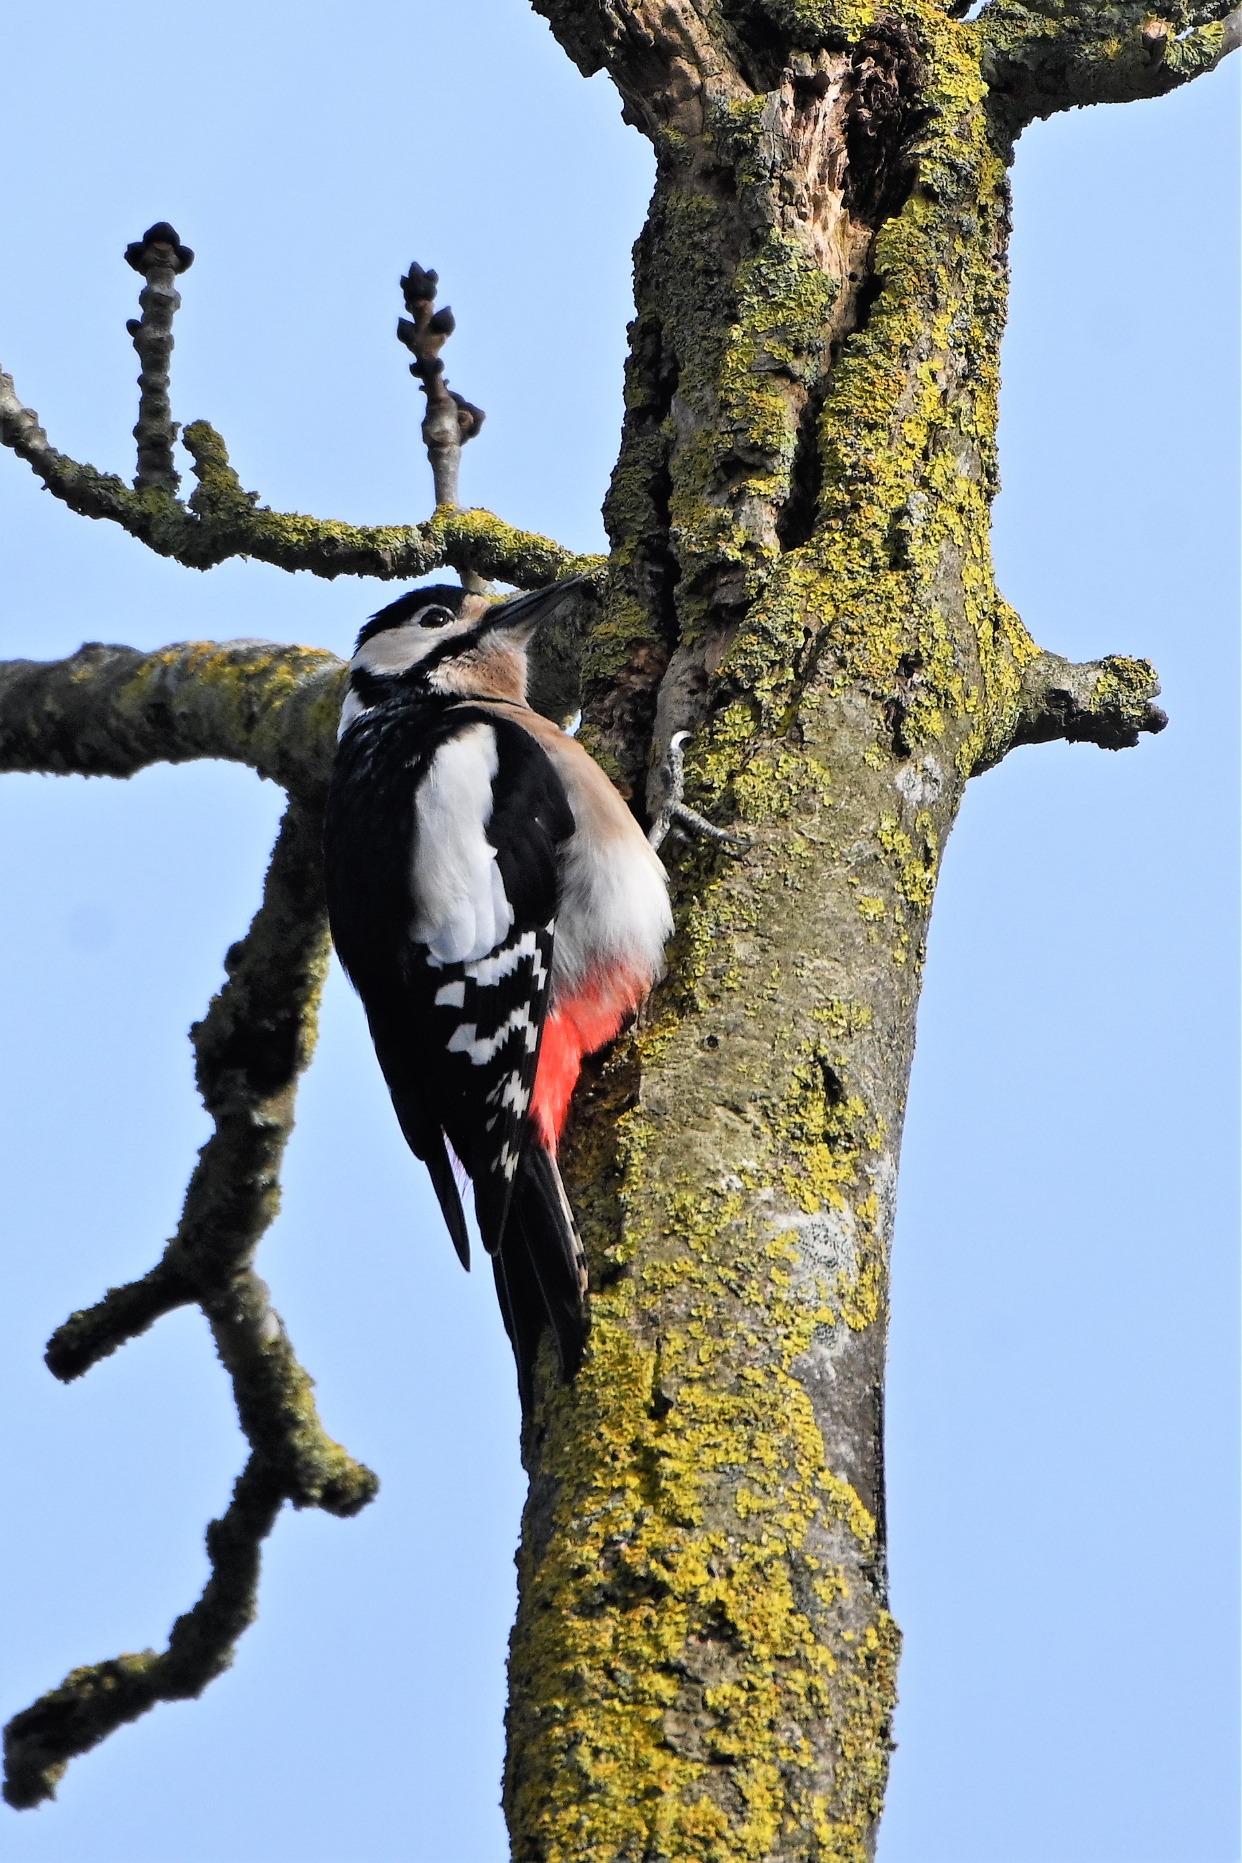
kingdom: Animalia
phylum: Chordata
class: Aves
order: Piciformes
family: Picidae
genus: Dendrocopos
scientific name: Dendrocopos major
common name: Stor flagspætte
